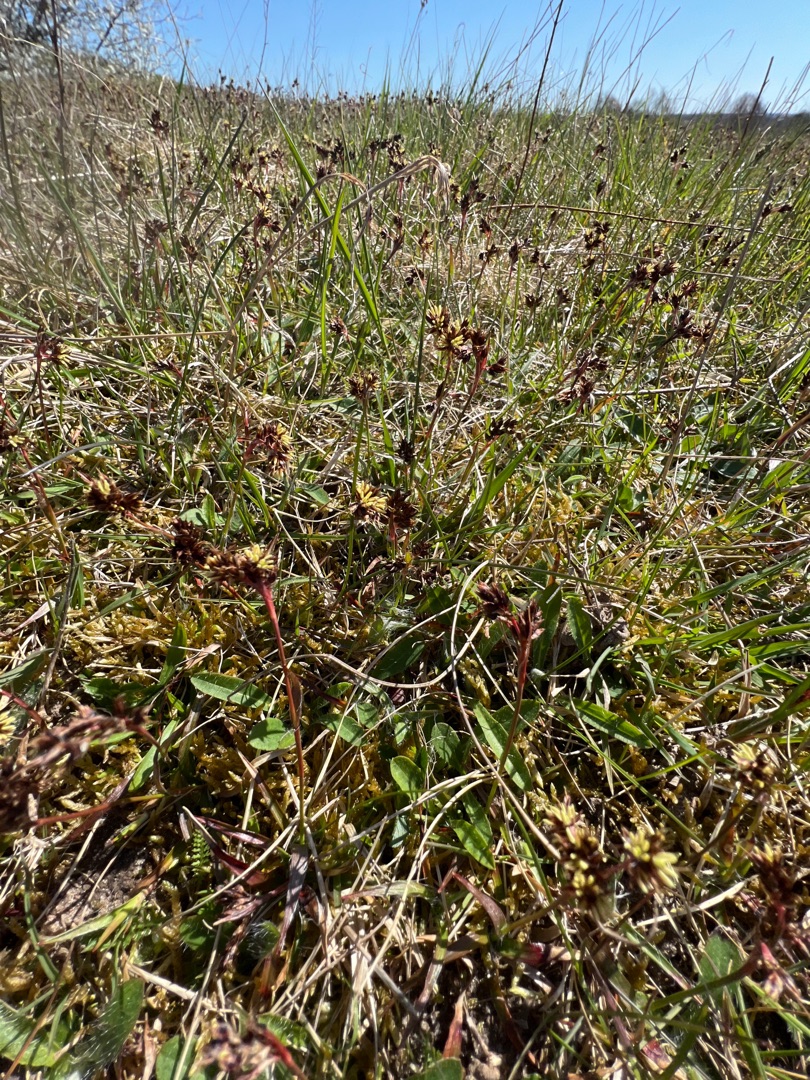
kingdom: Plantae
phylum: Tracheophyta
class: Liliopsida
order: Poales
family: Juncaceae
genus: Luzula
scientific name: Luzula campestris
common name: Mark-frytle
